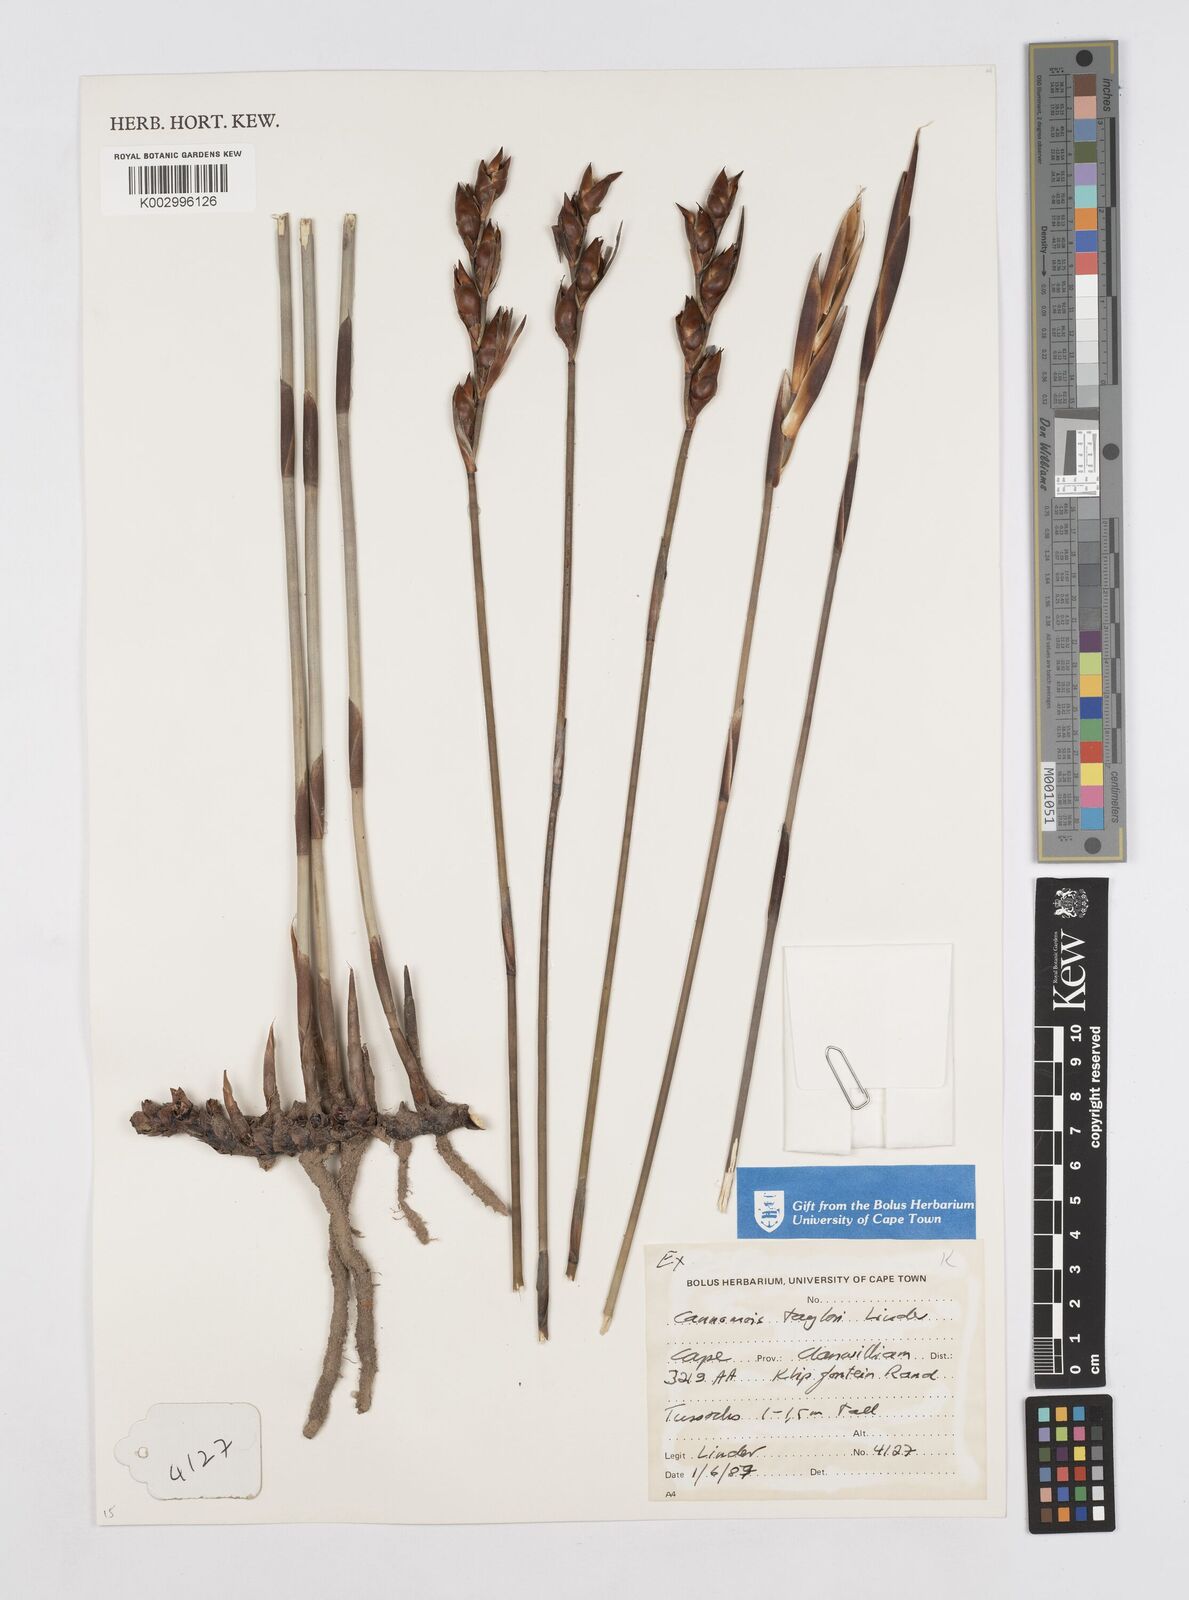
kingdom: Plantae
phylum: Tracheophyta
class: Liliopsida
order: Poales
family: Restionaceae
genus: Cannomois
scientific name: Cannomois taylorii
